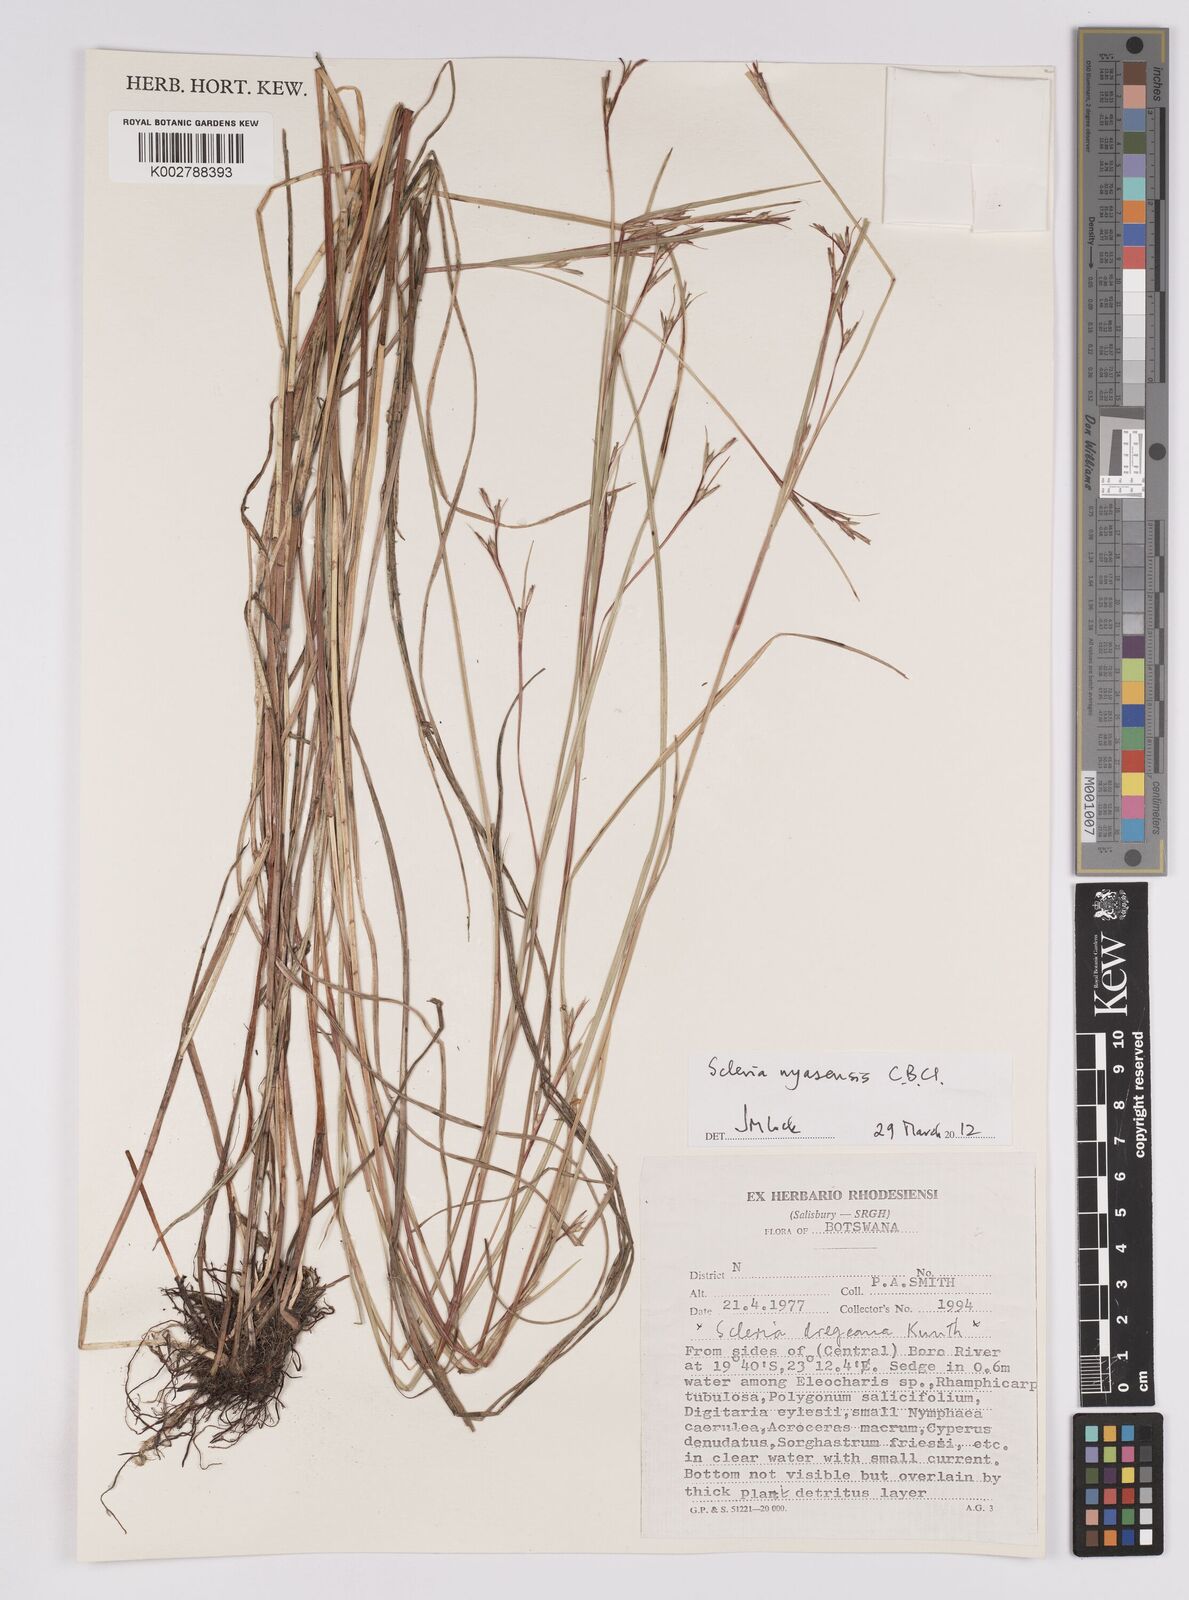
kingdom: Plantae
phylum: Tracheophyta
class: Liliopsida
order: Poales
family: Cyperaceae
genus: Scleria
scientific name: Scleria nyasensis
